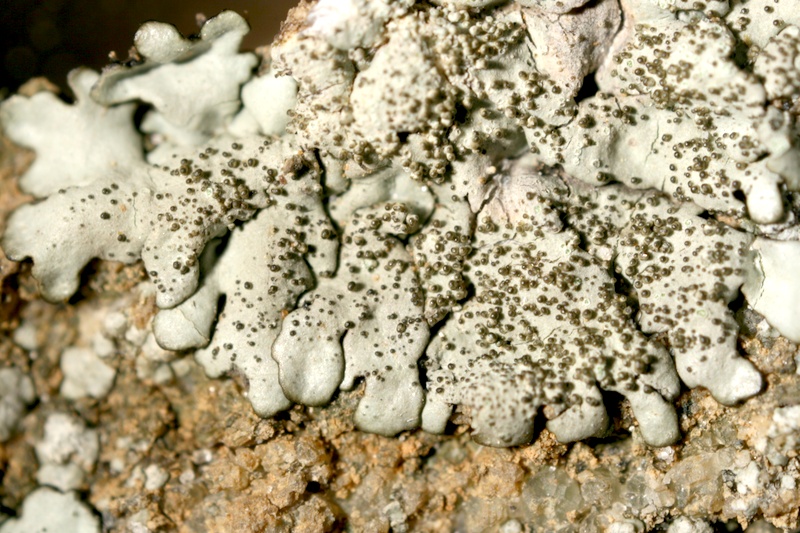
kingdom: Fungi
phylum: Ascomycota
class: Lecanoromycetes
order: Lecanorales
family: Parmeliaceae
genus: Xanthoparmelia
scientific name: Xanthoparmelia
